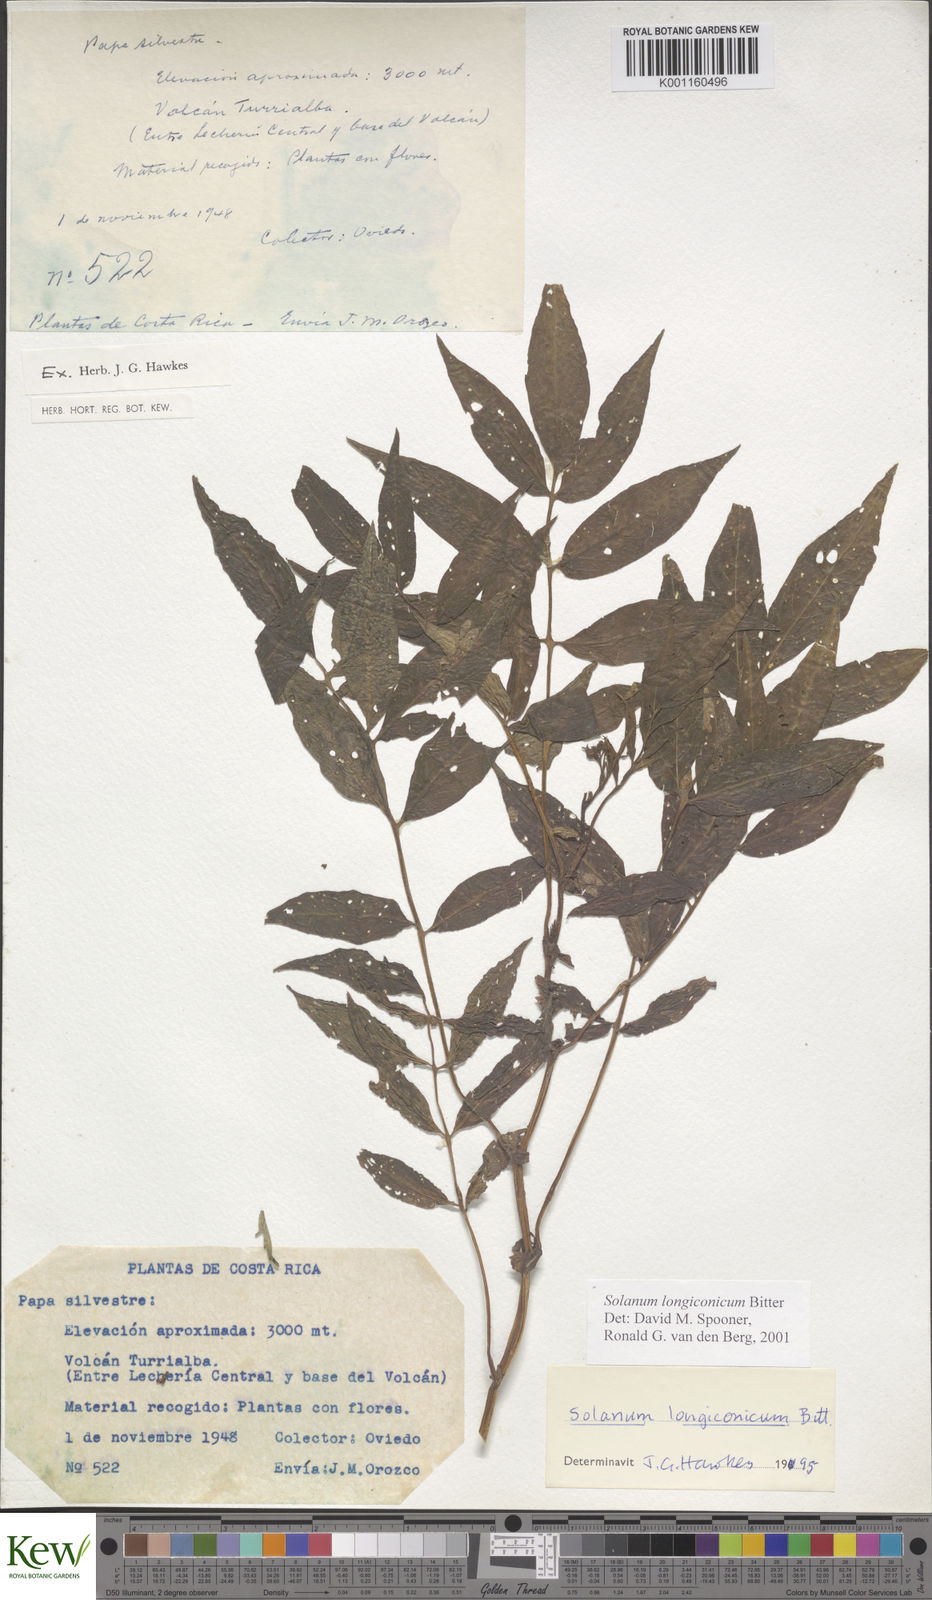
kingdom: Plantae
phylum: Tracheophyta
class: Magnoliopsida
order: Solanales
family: Solanaceae
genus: Solanum
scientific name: Solanum longiconicum
